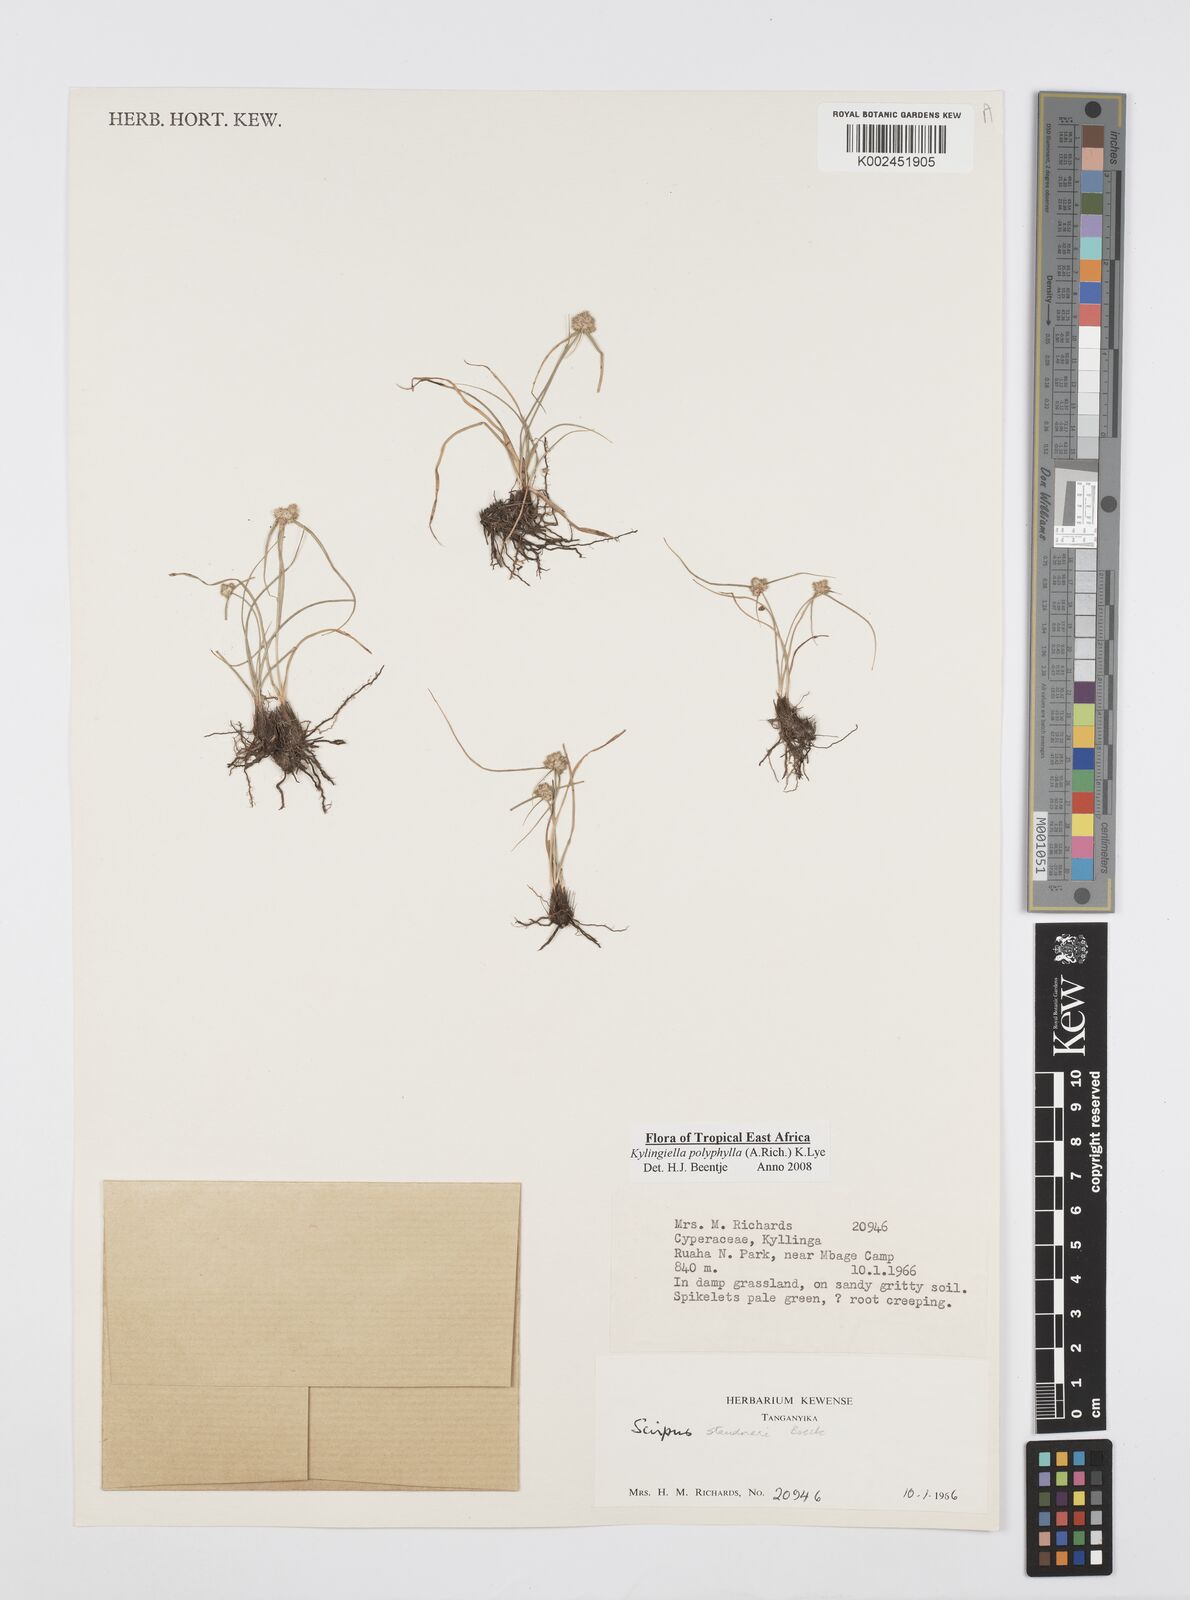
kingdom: Plantae
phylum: Tracheophyta
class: Liliopsida
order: Poales
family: Cyperaceae
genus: Cyperus
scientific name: Cyperus bulbosus
